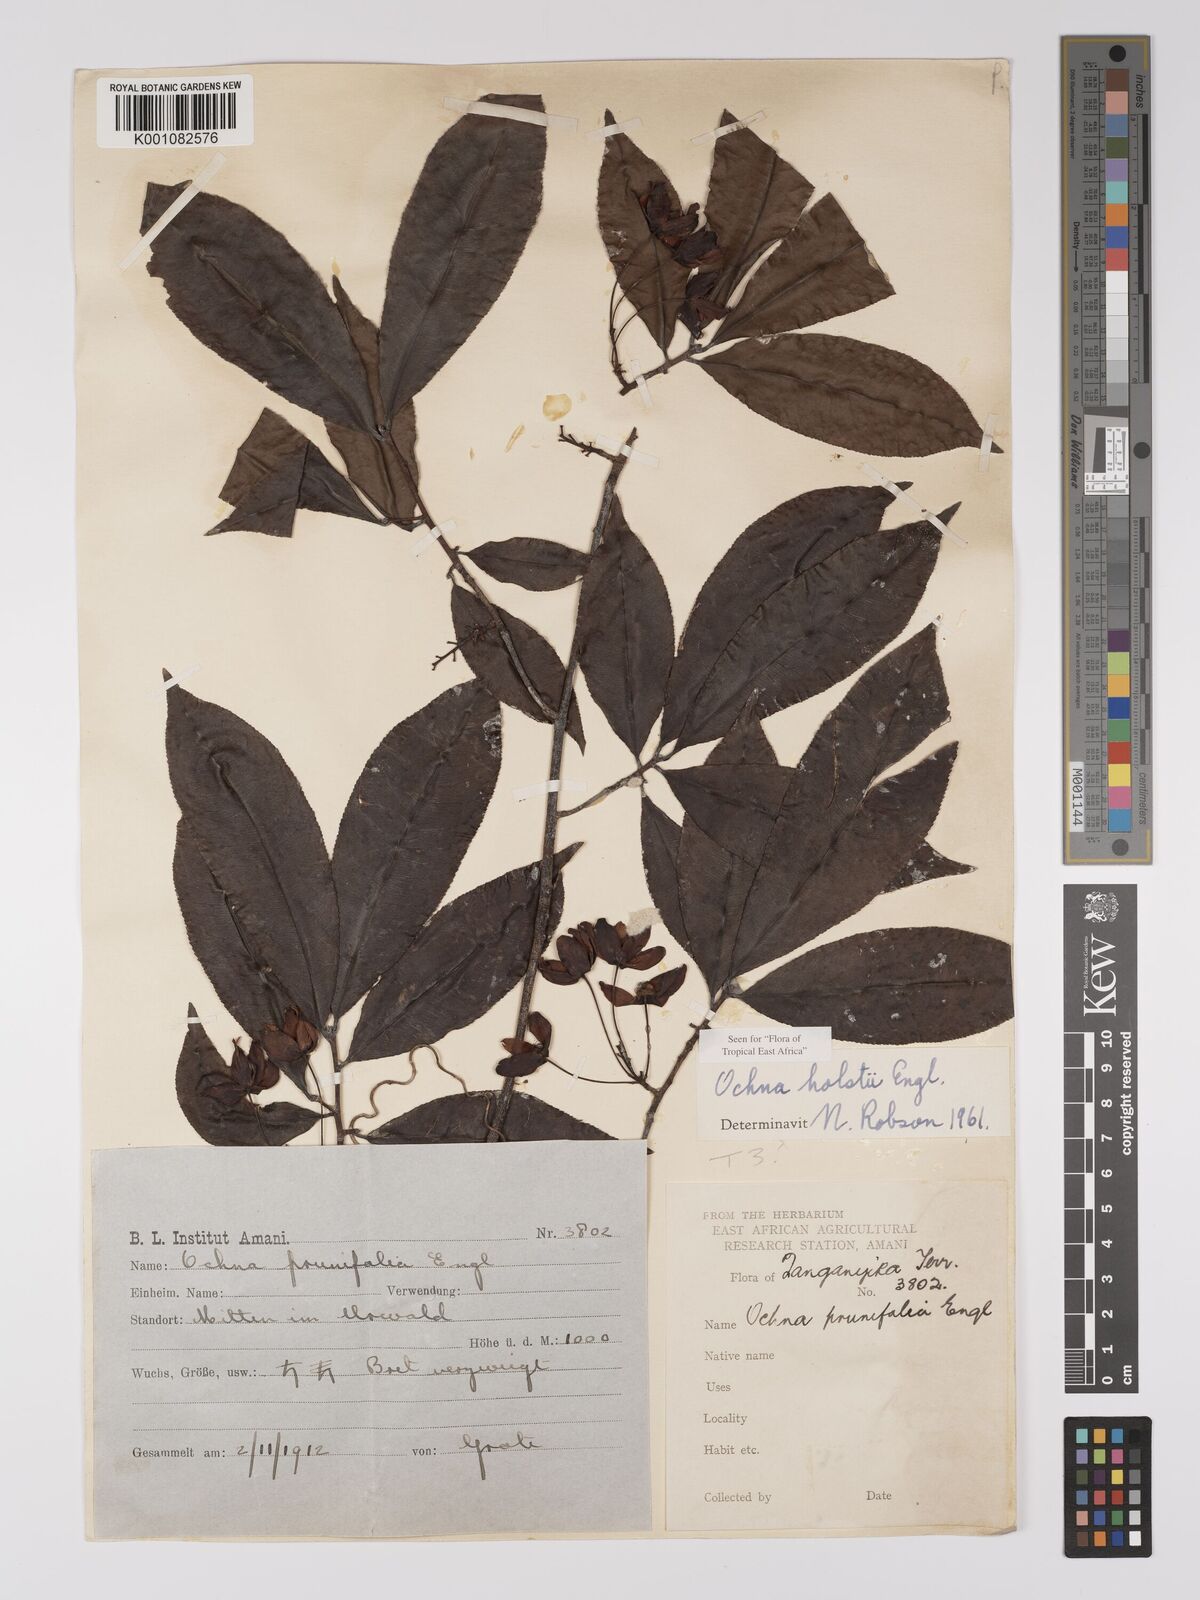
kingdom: Plantae
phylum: Tracheophyta
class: Magnoliopsida
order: Malpighiales
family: Ochnaceae
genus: Ochna
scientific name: Ochna holstii
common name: Red ironwood
